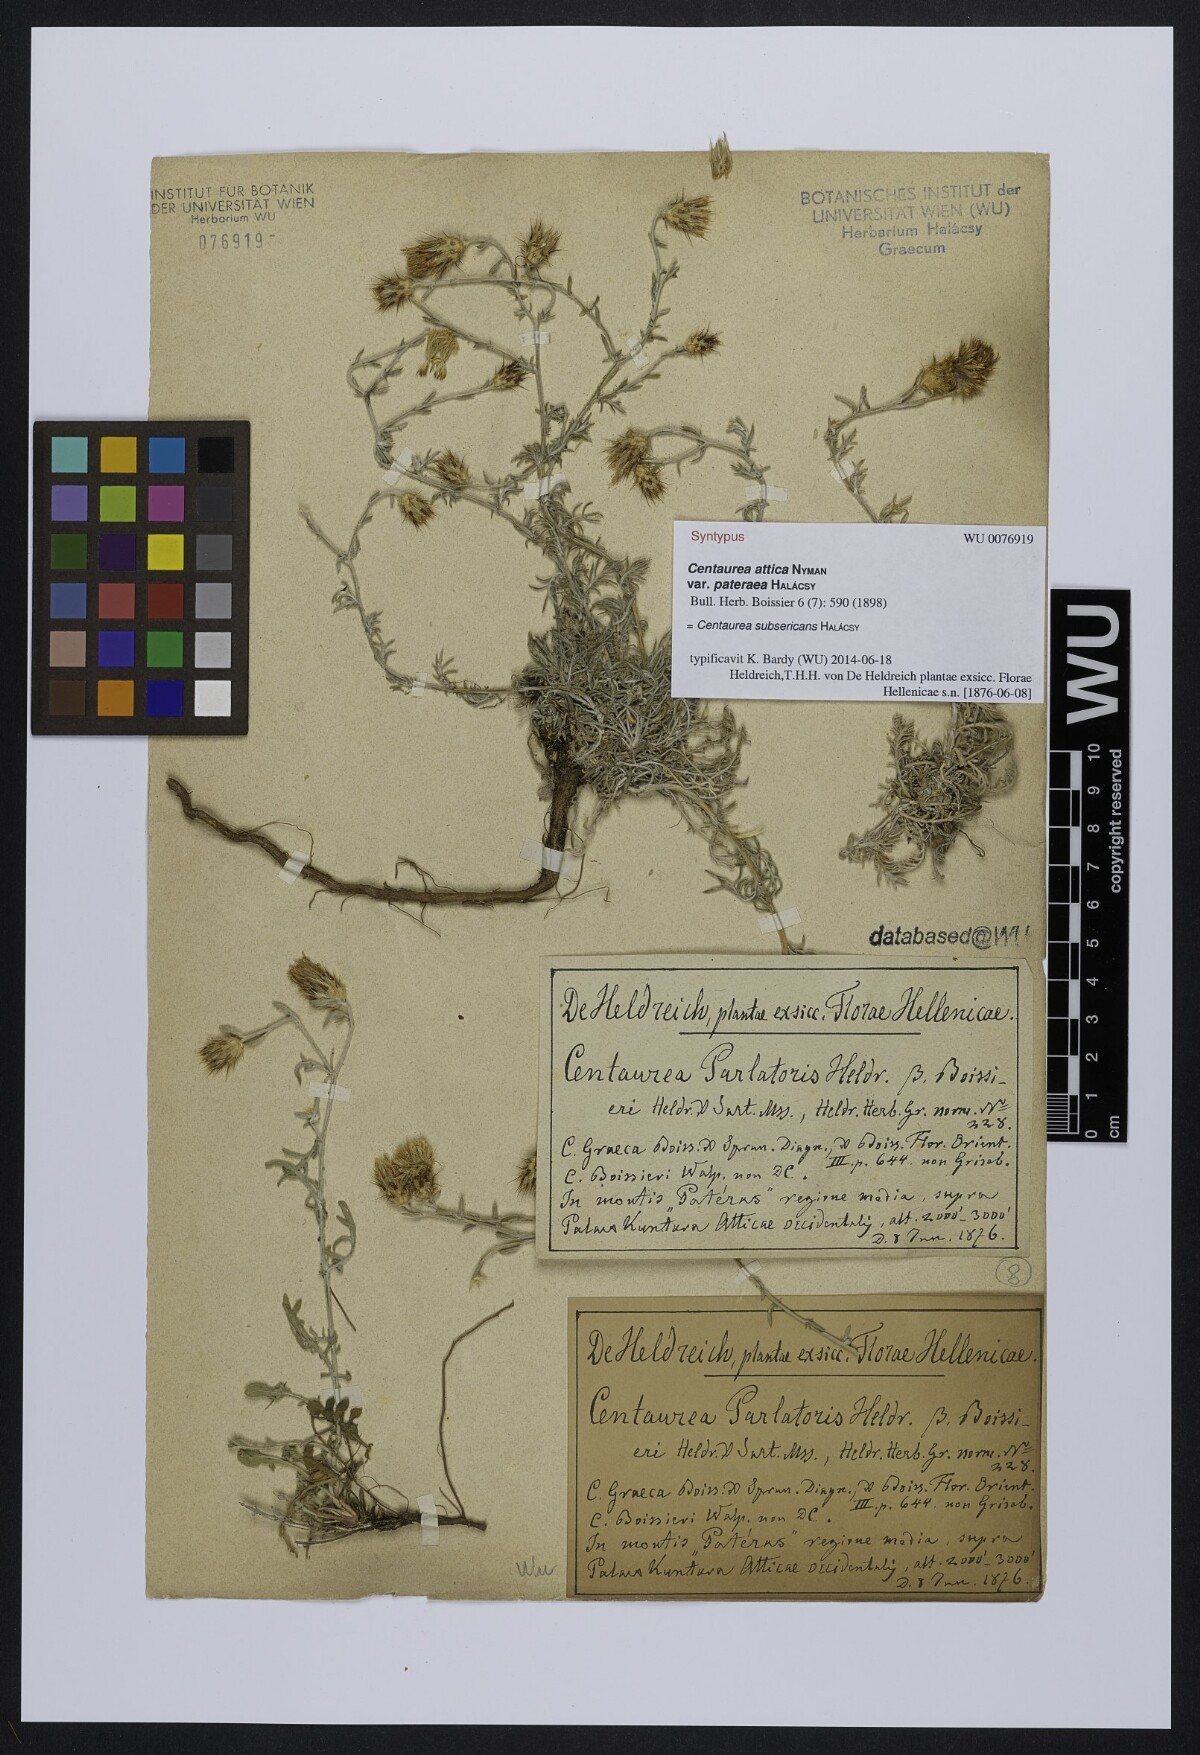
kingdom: Plantae
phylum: Tracheophyta
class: Magnoliopsida
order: Asterales
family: Asteraceae
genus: Centaurea
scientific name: Centaurea subsericans
